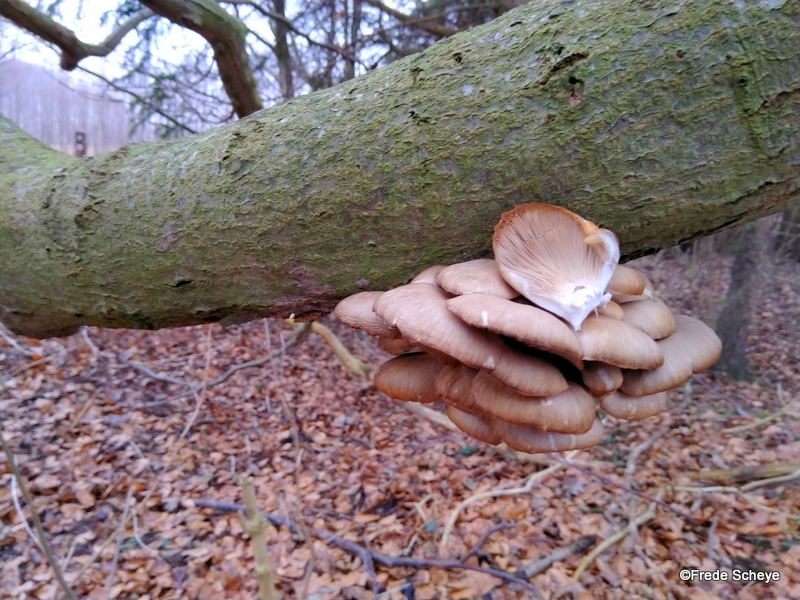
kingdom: Fungi
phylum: Basidiomycota
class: Agaricomycetes
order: Agaricales
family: Pleurotaceae
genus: Pleurotus
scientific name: Pleurotus ostreatus
